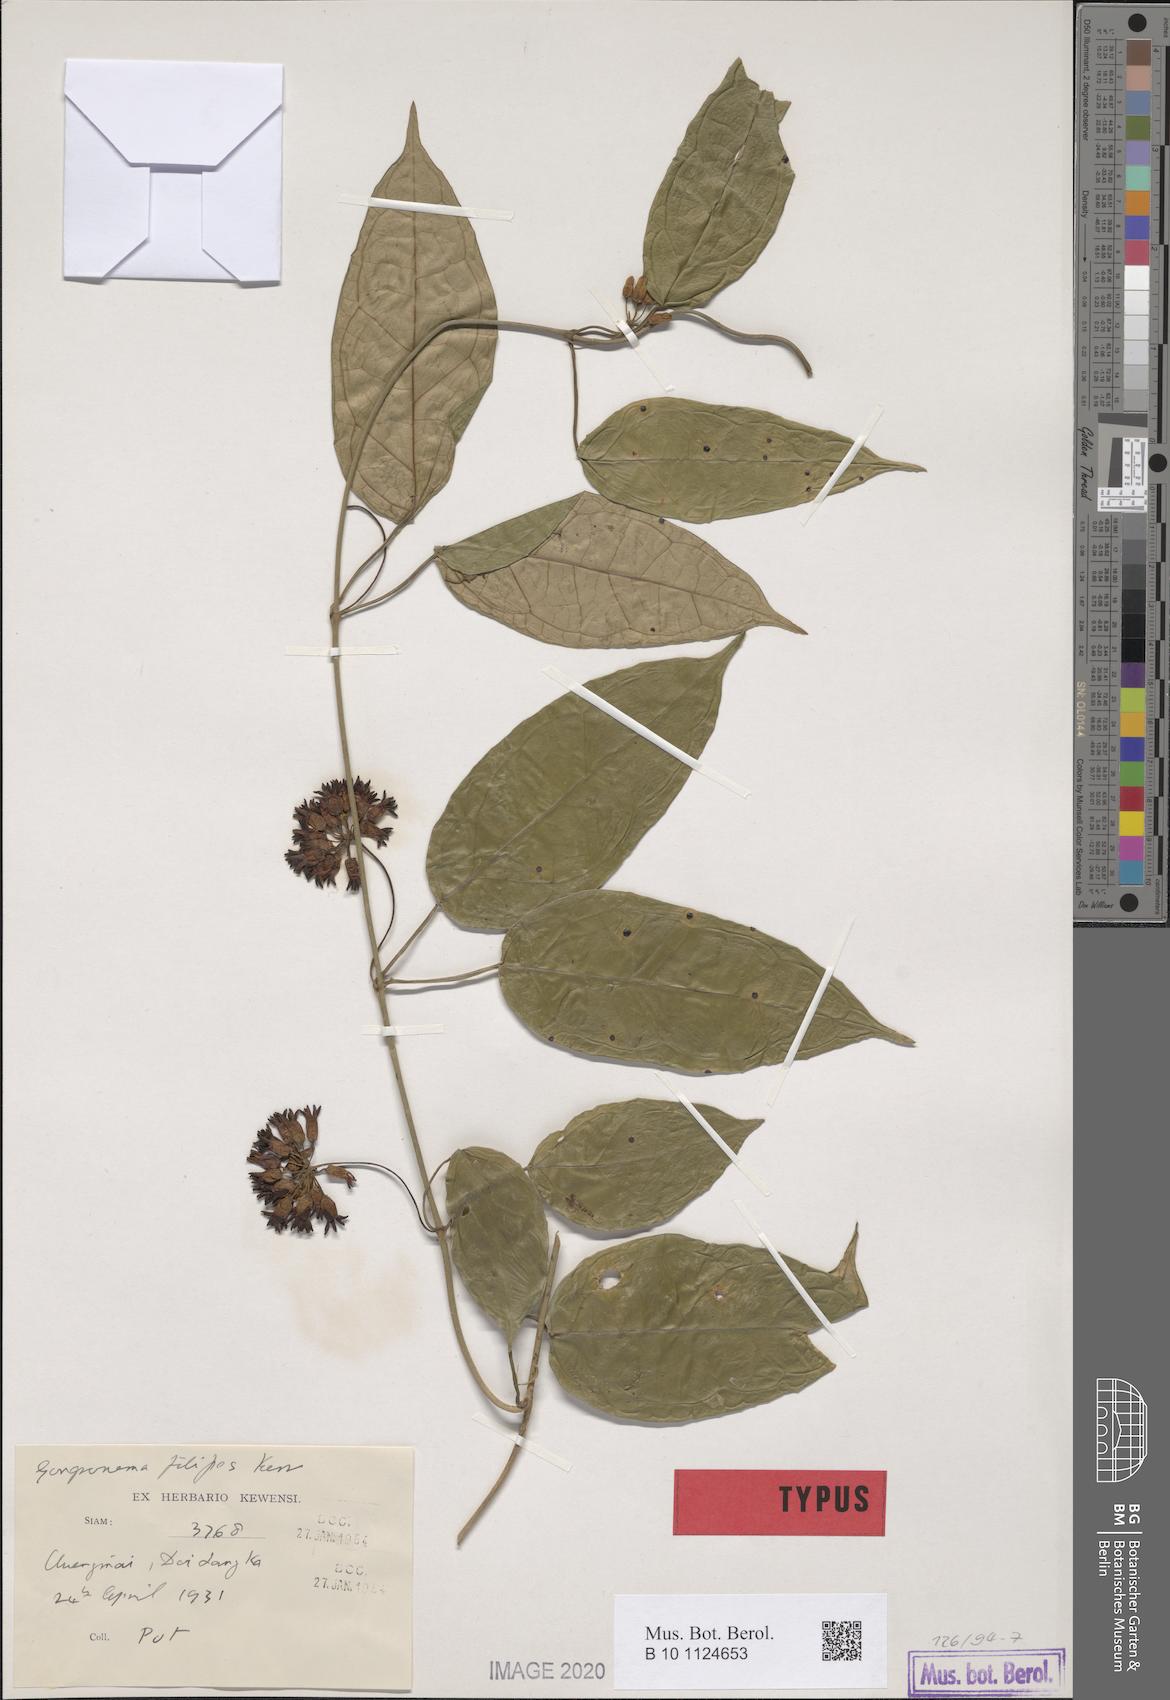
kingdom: Plantae
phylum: Tracheophyta
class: Magnoliopsida
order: Gentianales
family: Apocynaceae
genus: Gongreos
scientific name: Gongreos filipes
